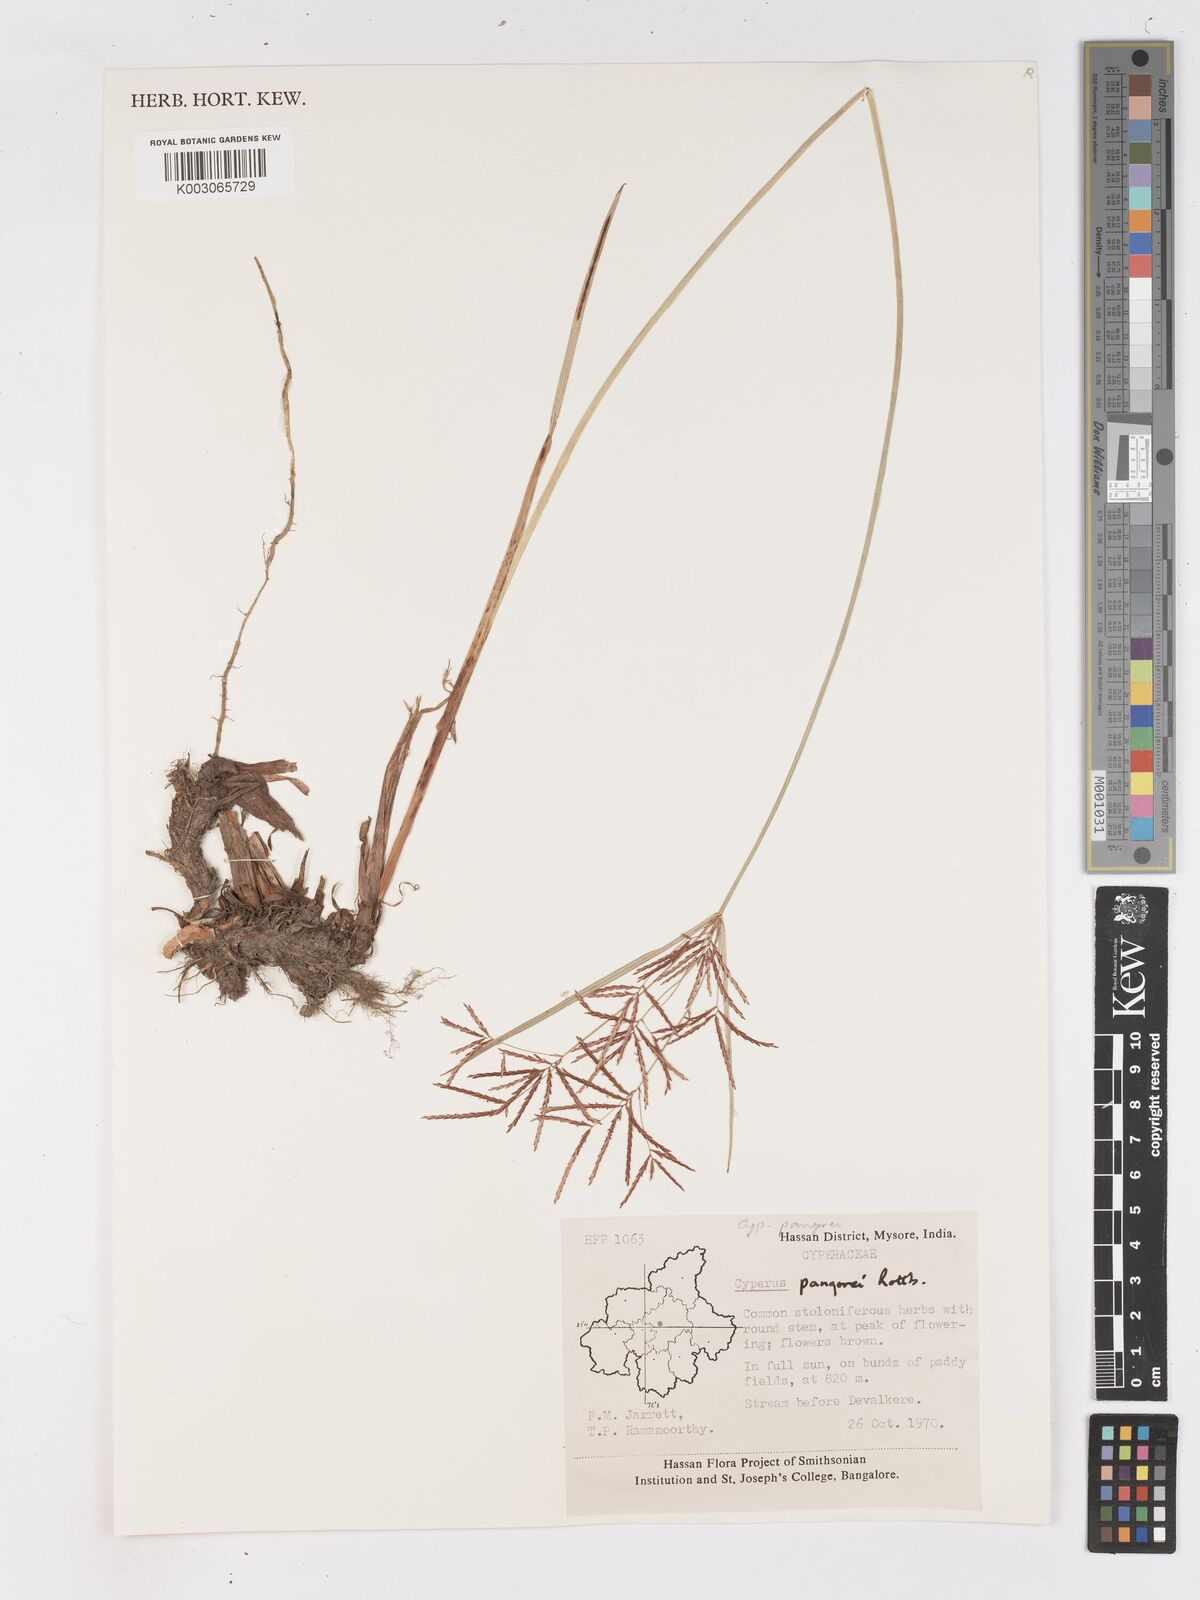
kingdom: Plantae
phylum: Tracheophyta
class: Liliopsida
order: Poales
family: Cyperaceae
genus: Cyperus
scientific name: Cyperus pangorei
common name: Mat sedge
